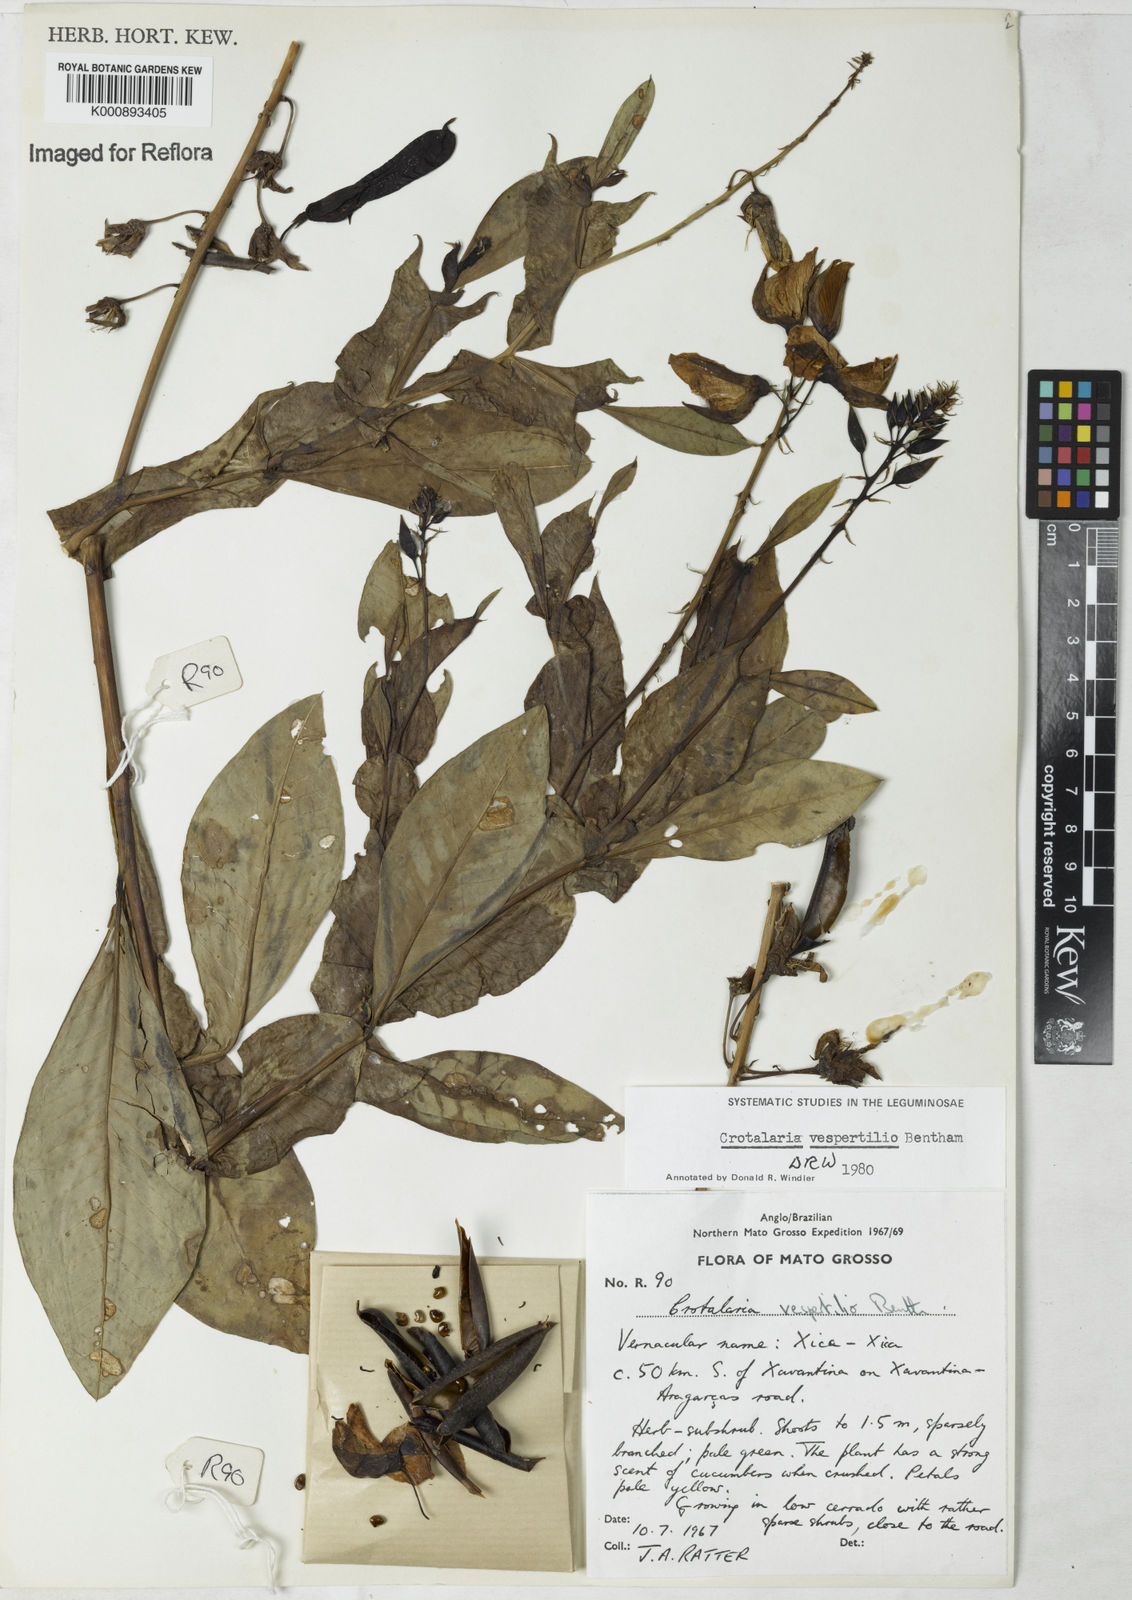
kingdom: Plantae
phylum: Tracheophyta
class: Magnoliopsida
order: Fabales
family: Fabaceae
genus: Crotalaria
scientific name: Crotalaria vespertilio
